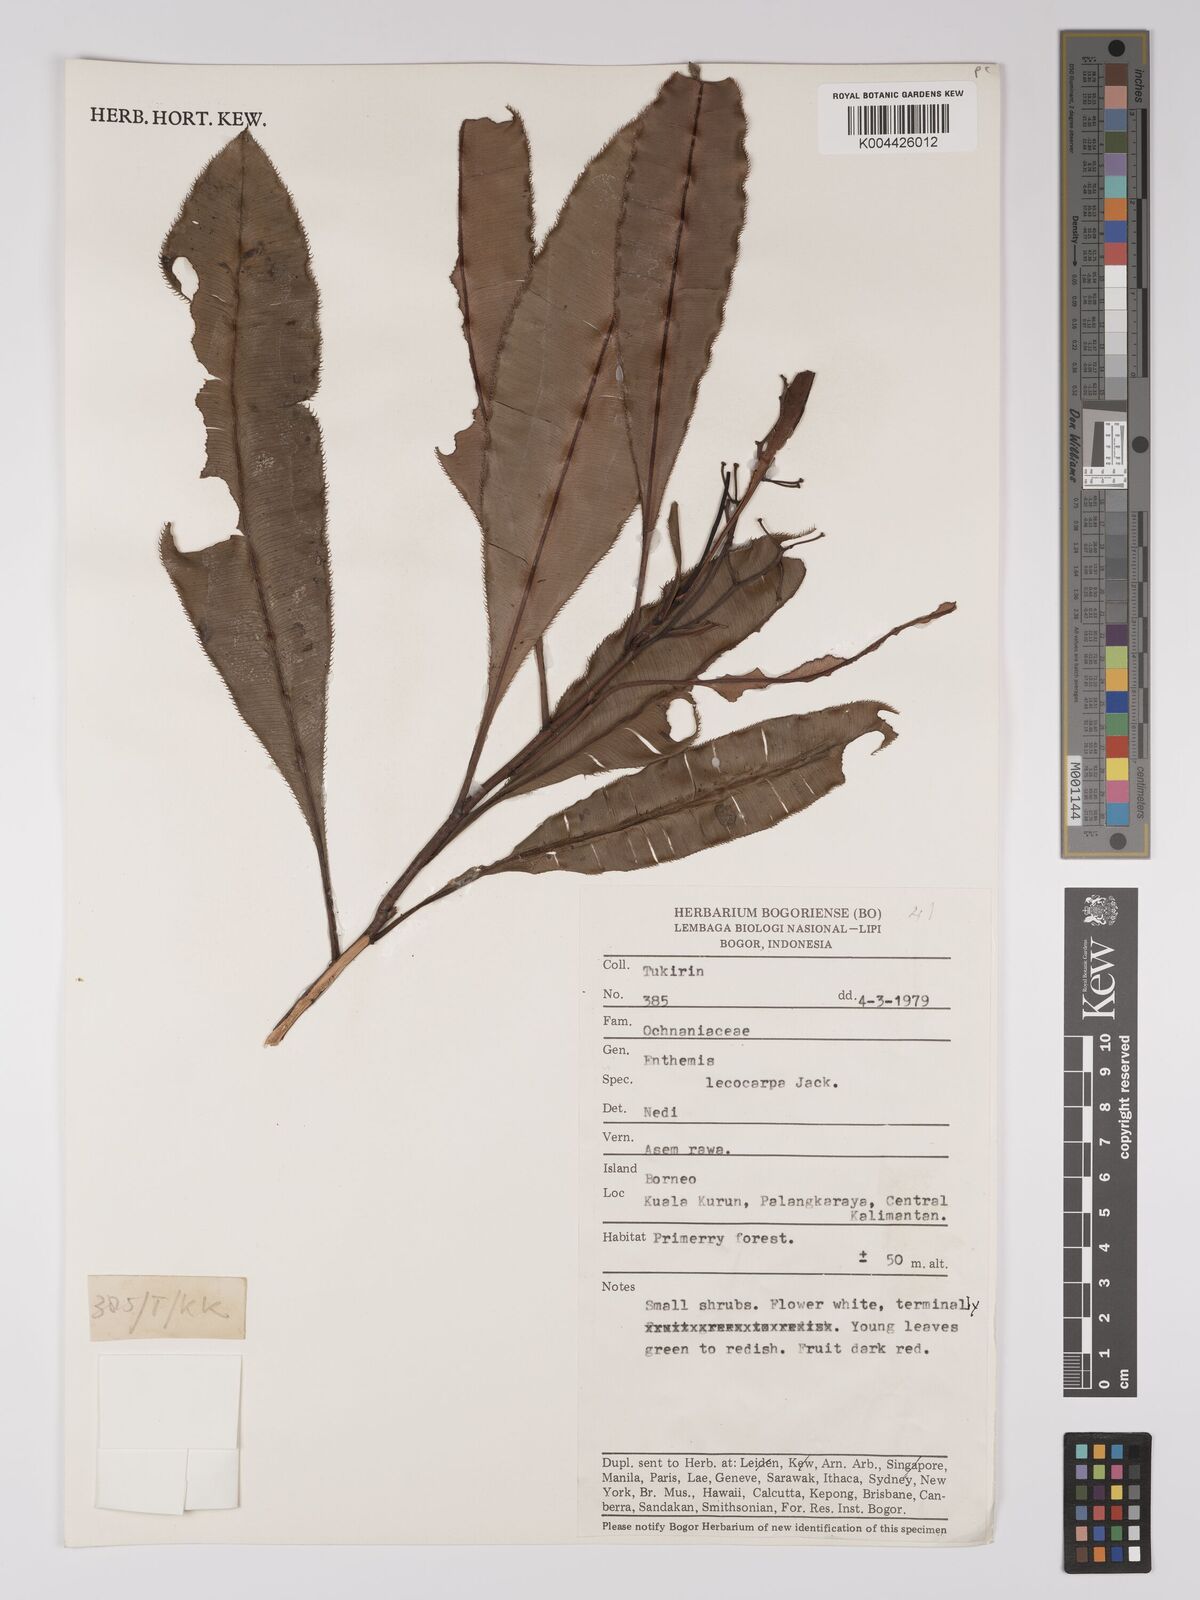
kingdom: Plantae
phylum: Tracheophyta
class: Magnoliopsida
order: Malpighiales
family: Ochnaceae
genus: Euthemis
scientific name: Euthemis leucocarpa
